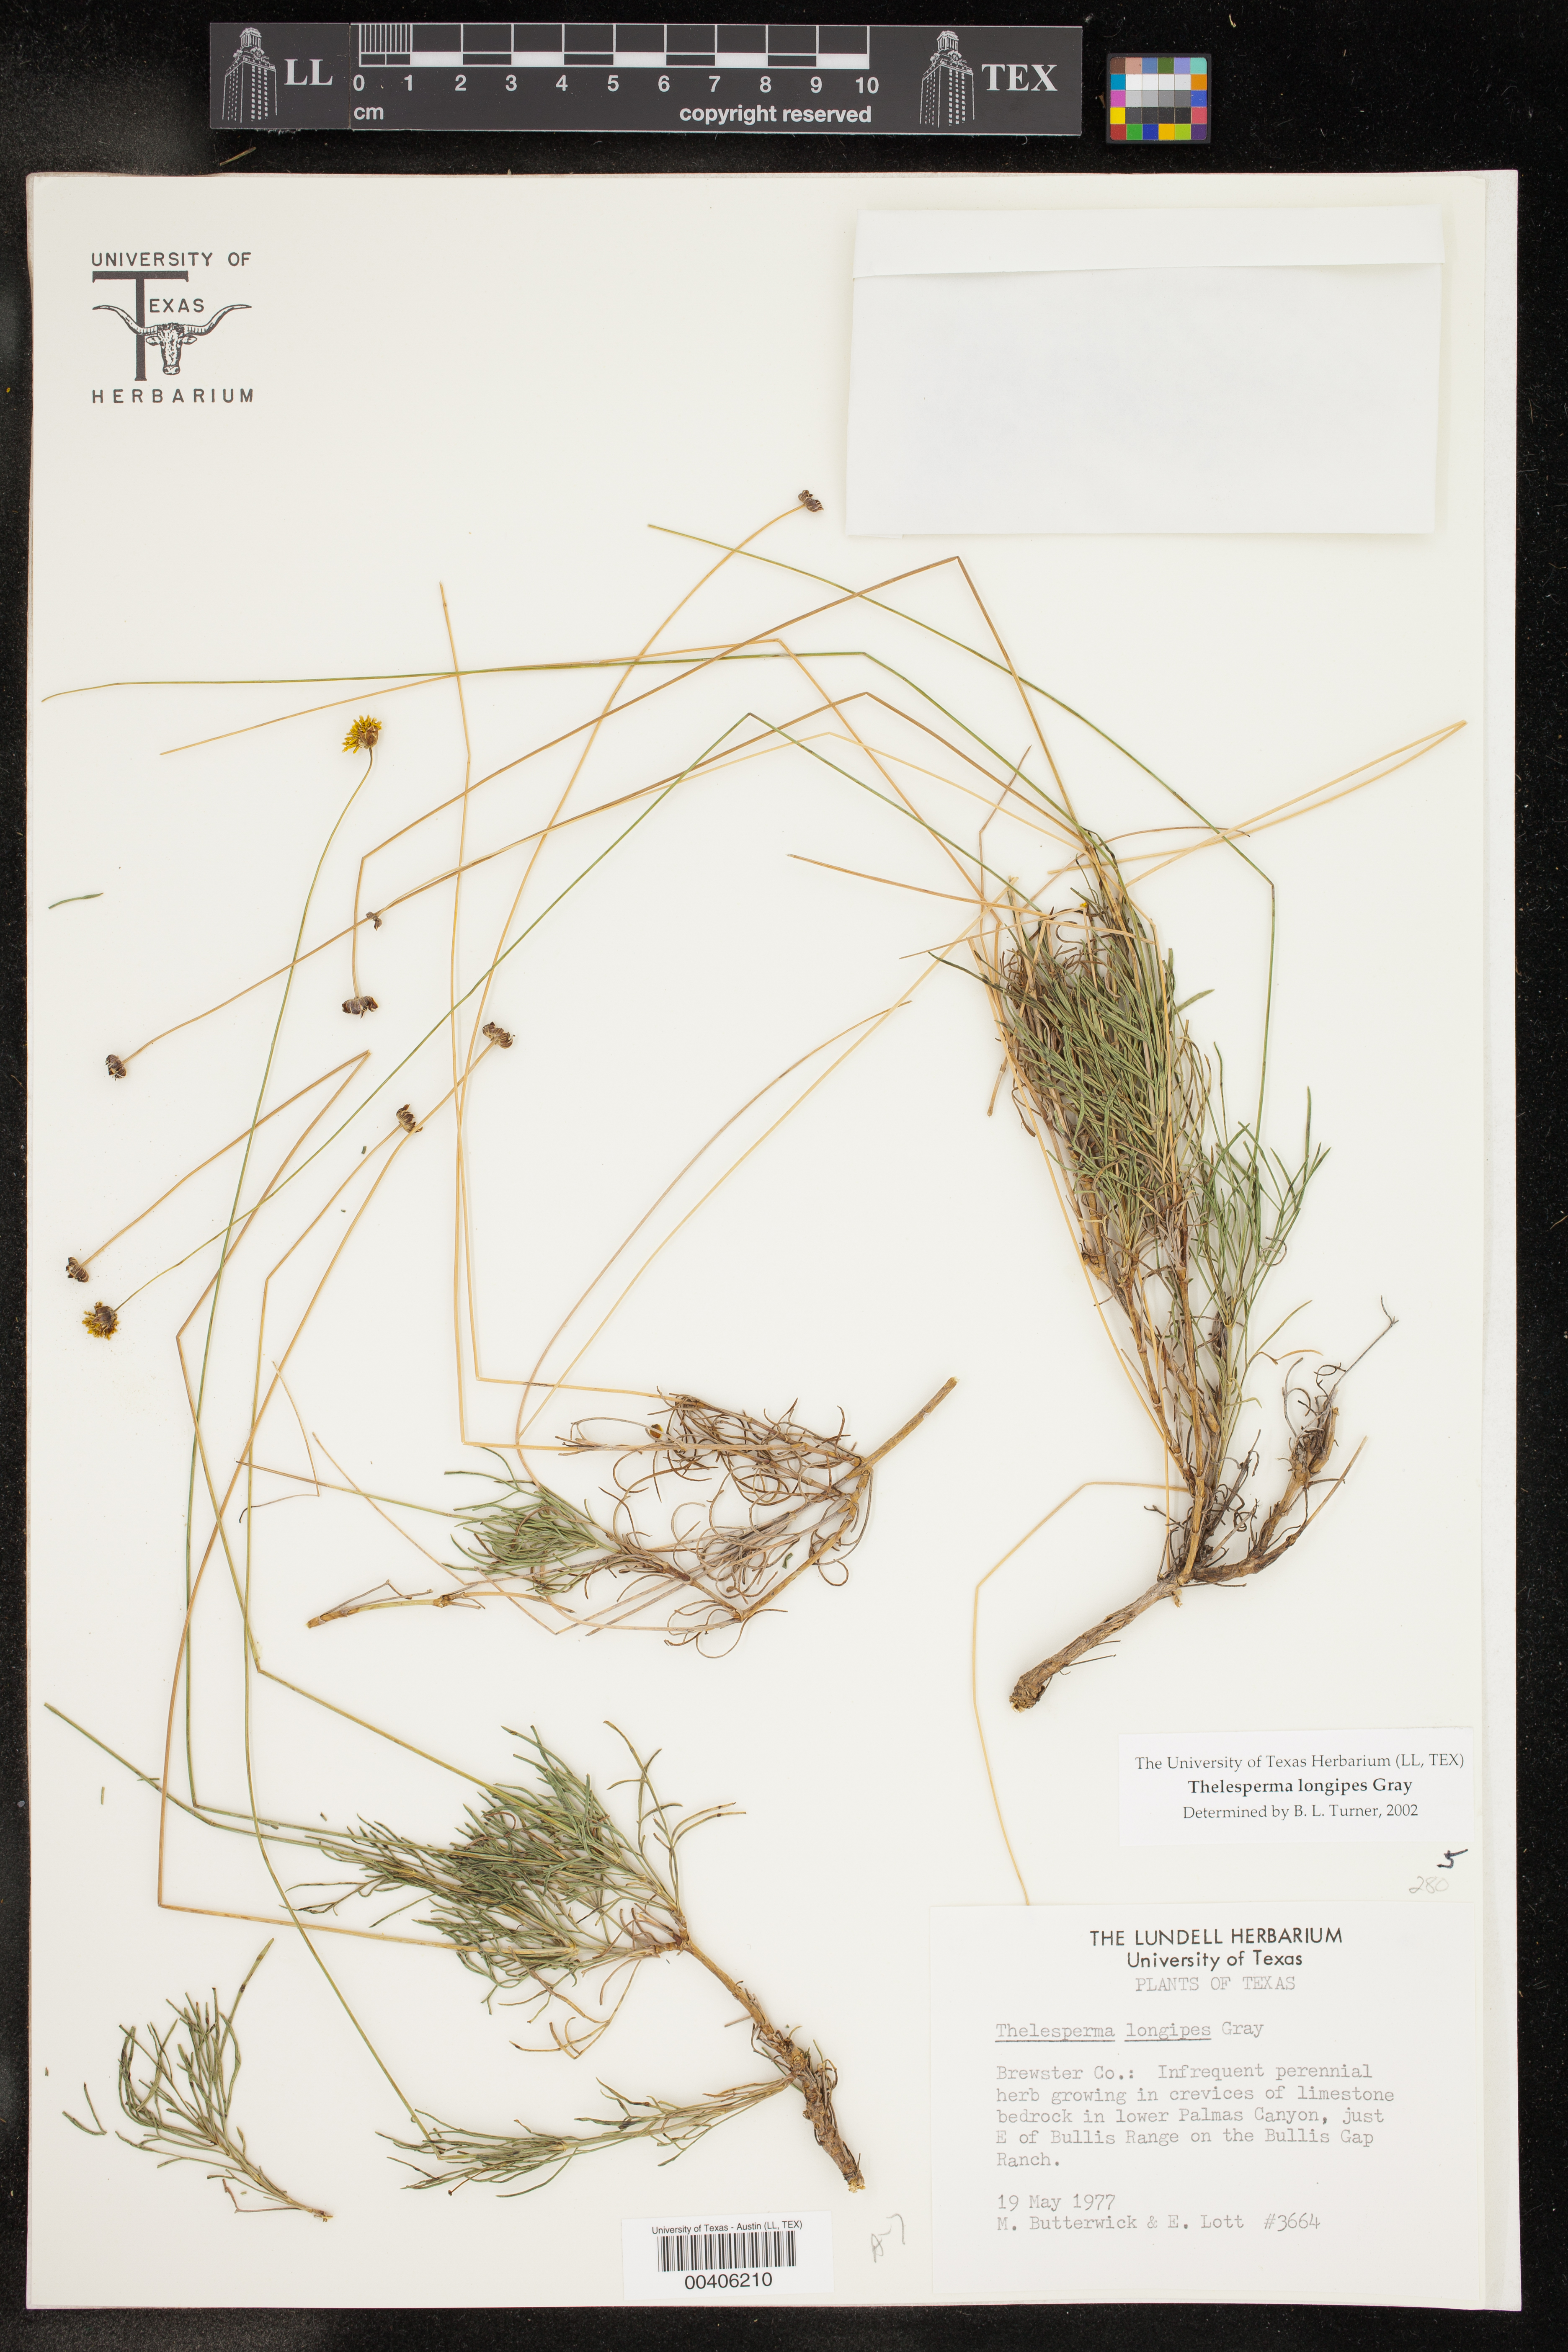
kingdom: Plantae
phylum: Tracheophyta
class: Magnoliopsida
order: Asterales
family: Asteraceae
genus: Thelesperma
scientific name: Thelesperma longipes
